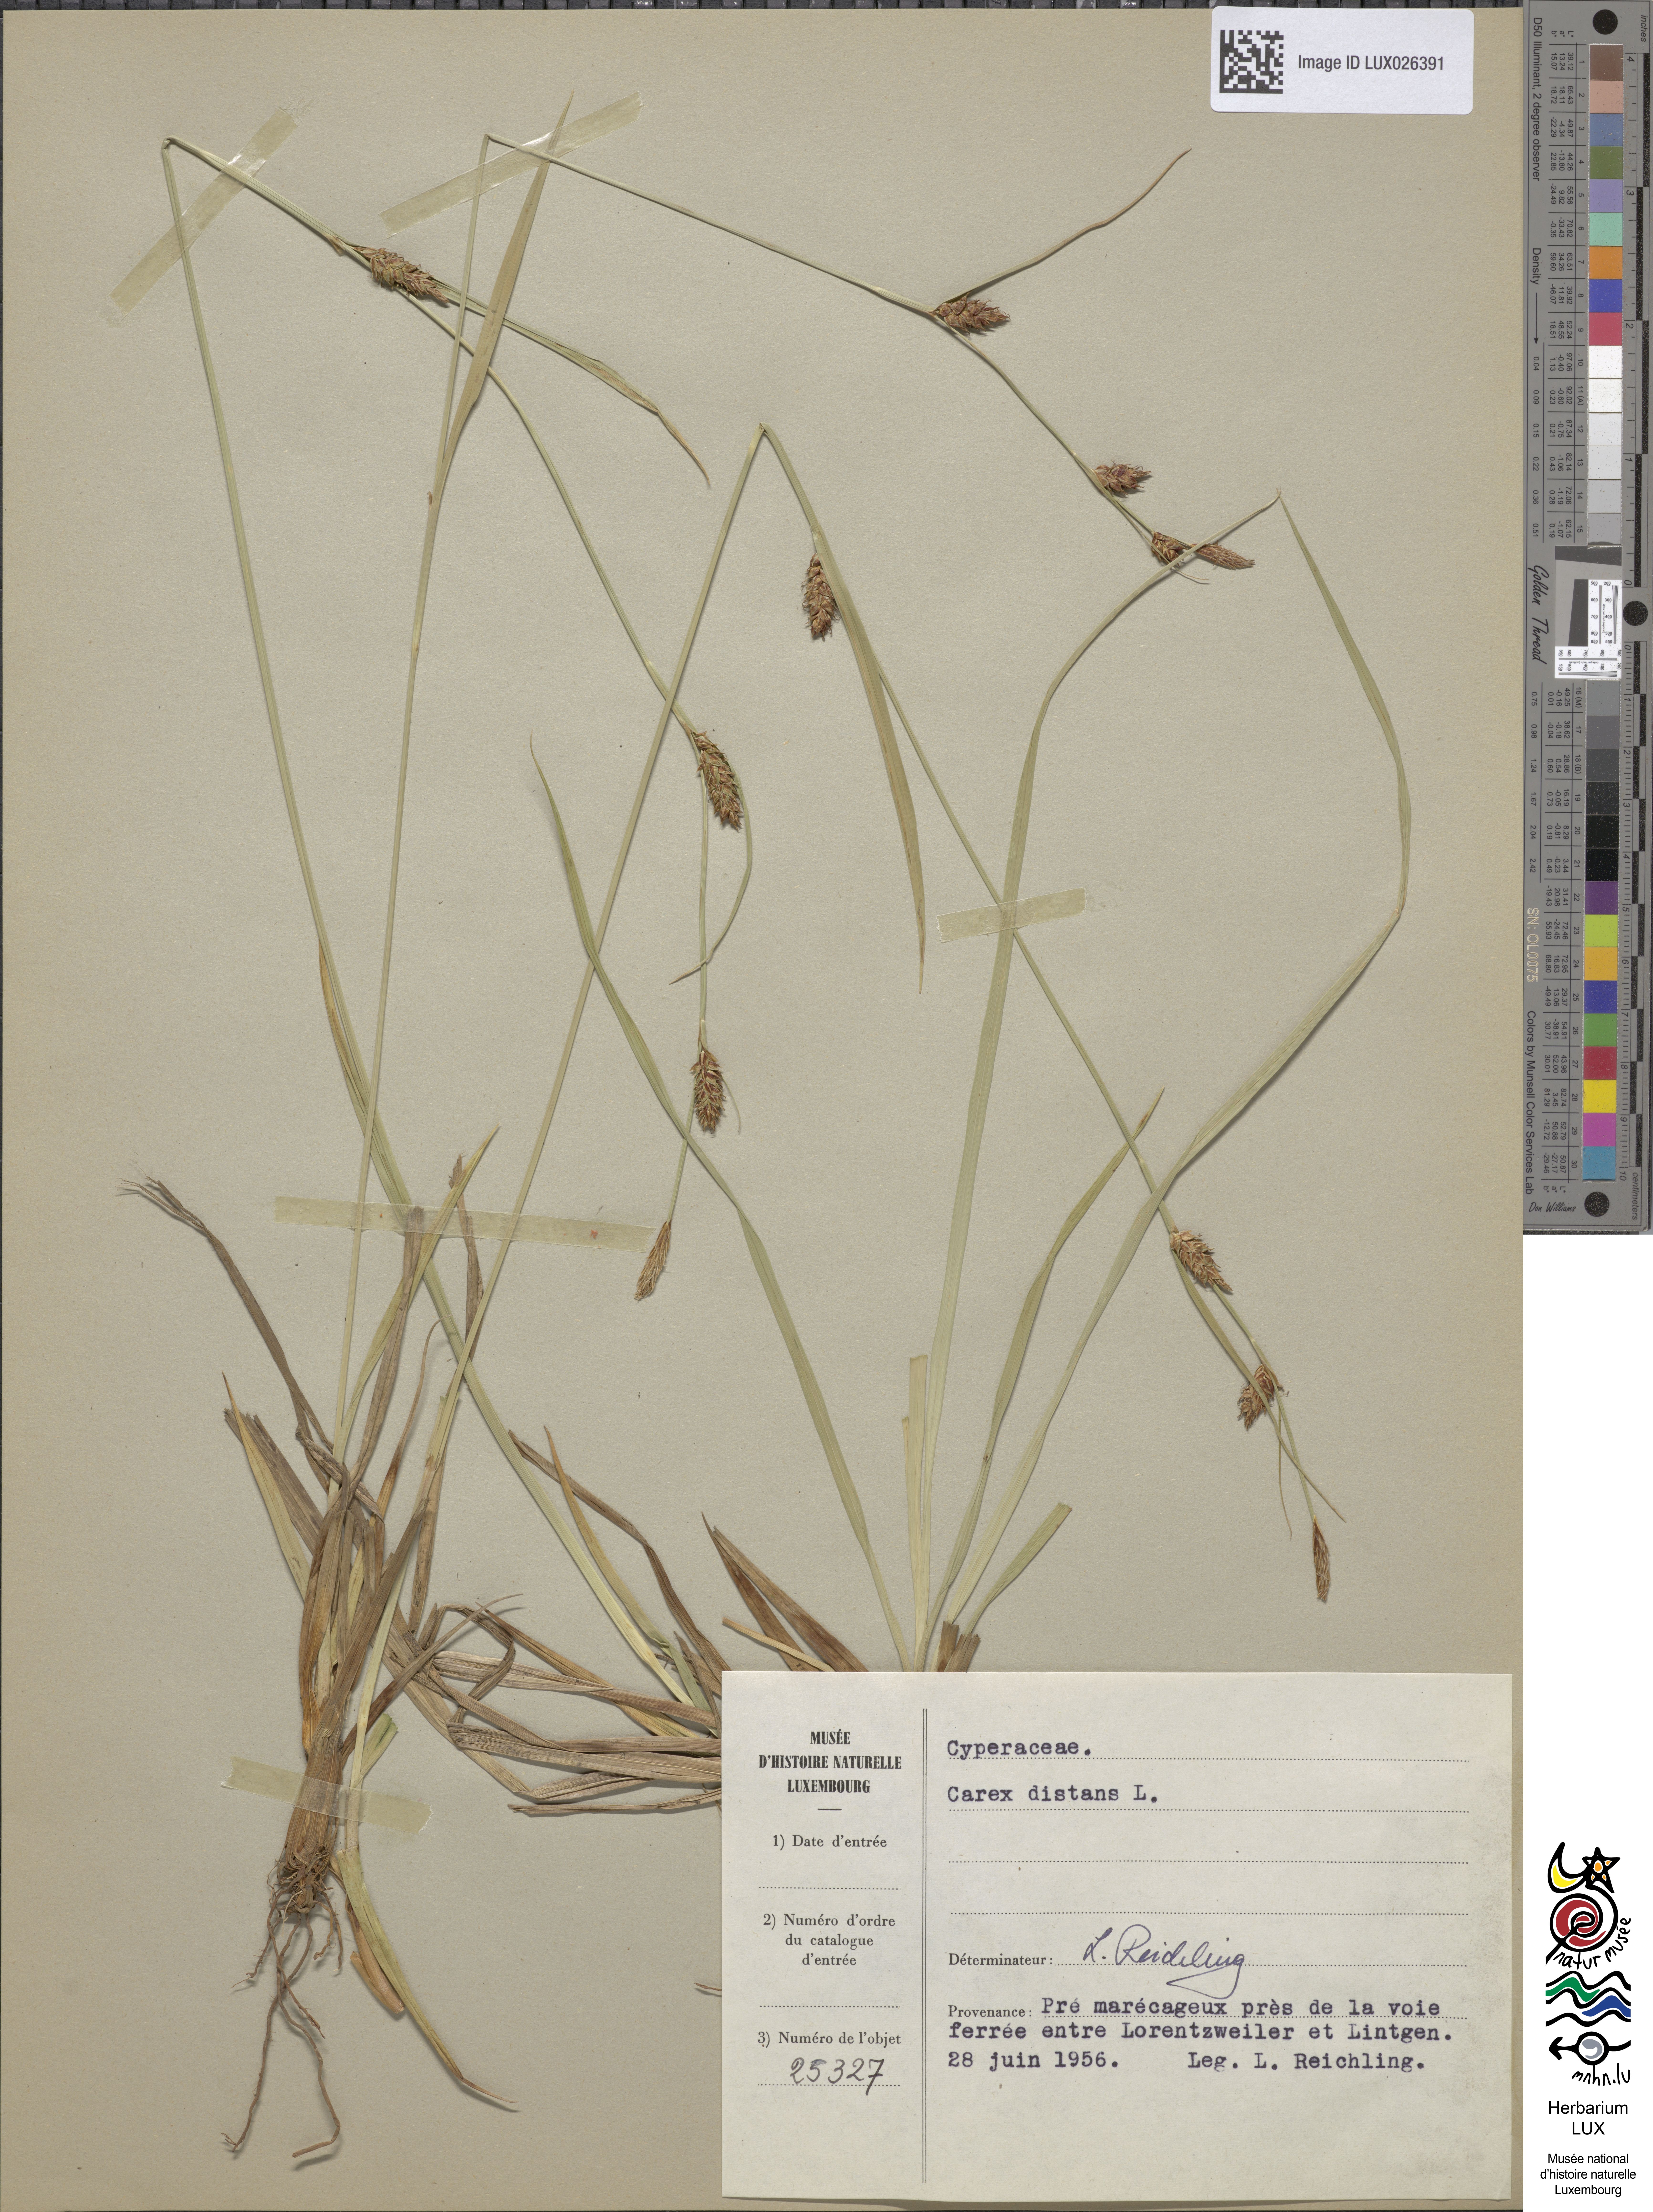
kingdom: Plantae
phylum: Tracheophyta
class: Liliopsida
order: Poales
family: Cyperaceae
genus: Carex
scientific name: Carex distans
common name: Distant sedge
